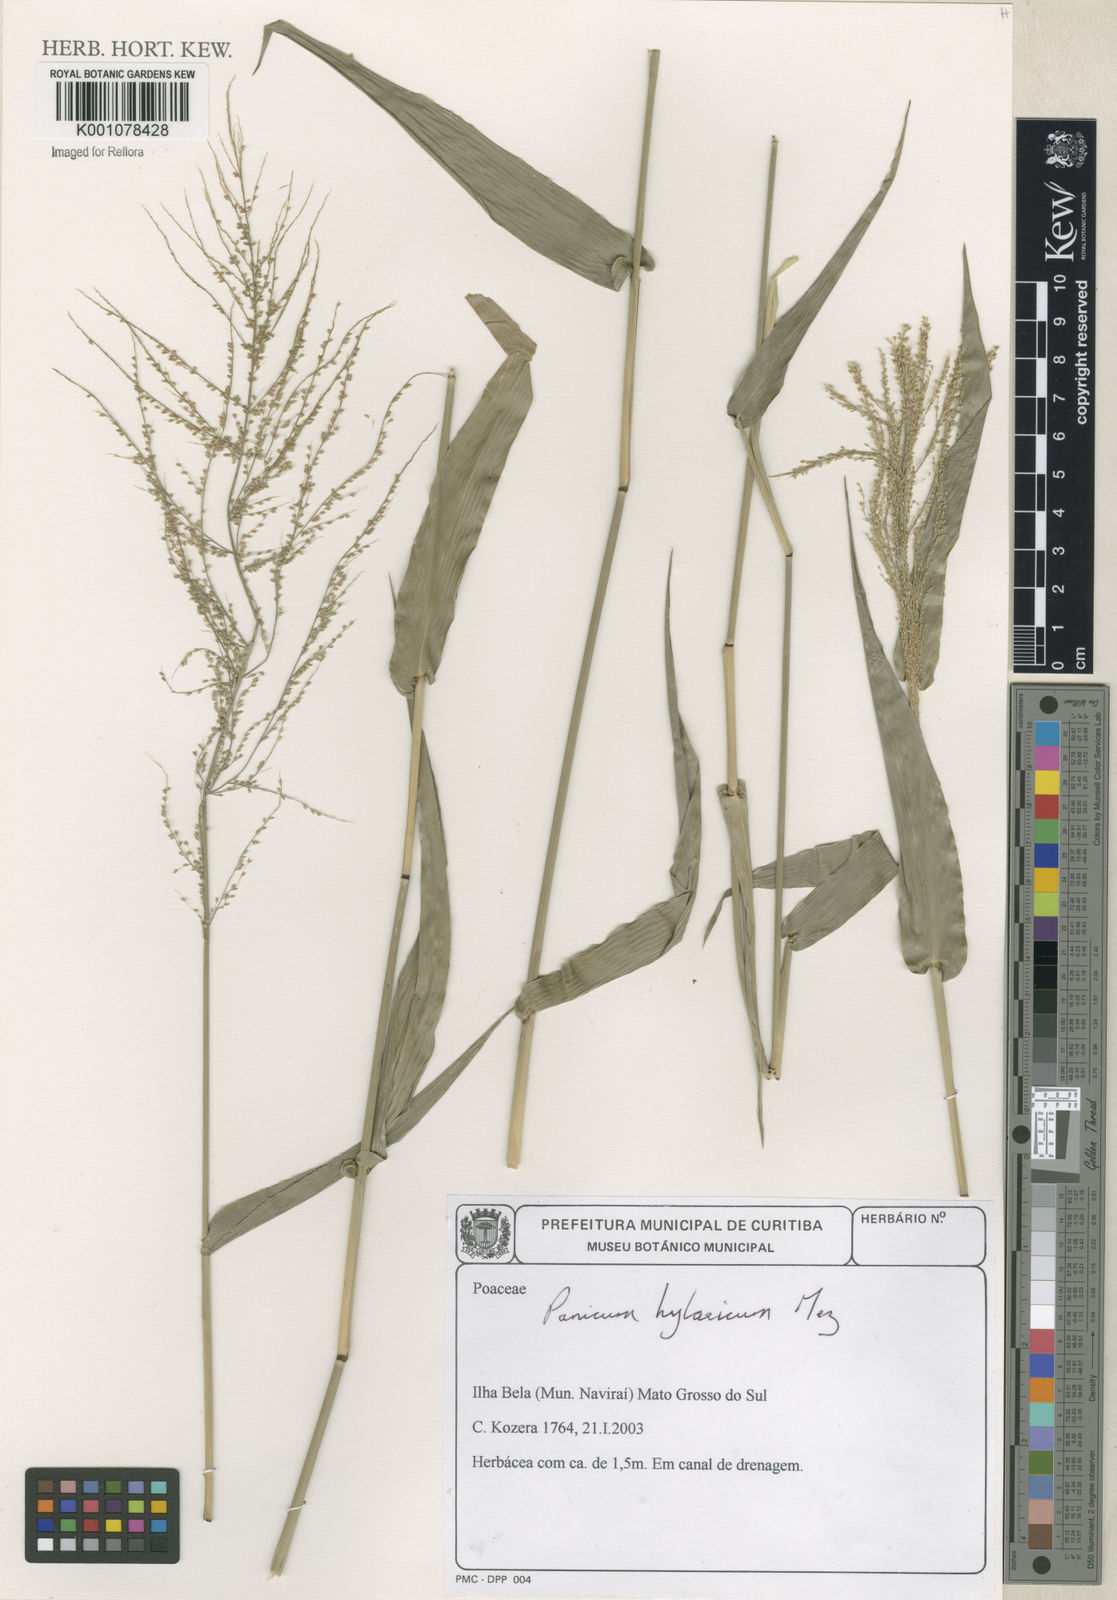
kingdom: Plantae
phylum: Tracheophyta
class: Liliopsida
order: Poales
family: Poaceae
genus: Rugoloa
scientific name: Rugoloa hylaeica
